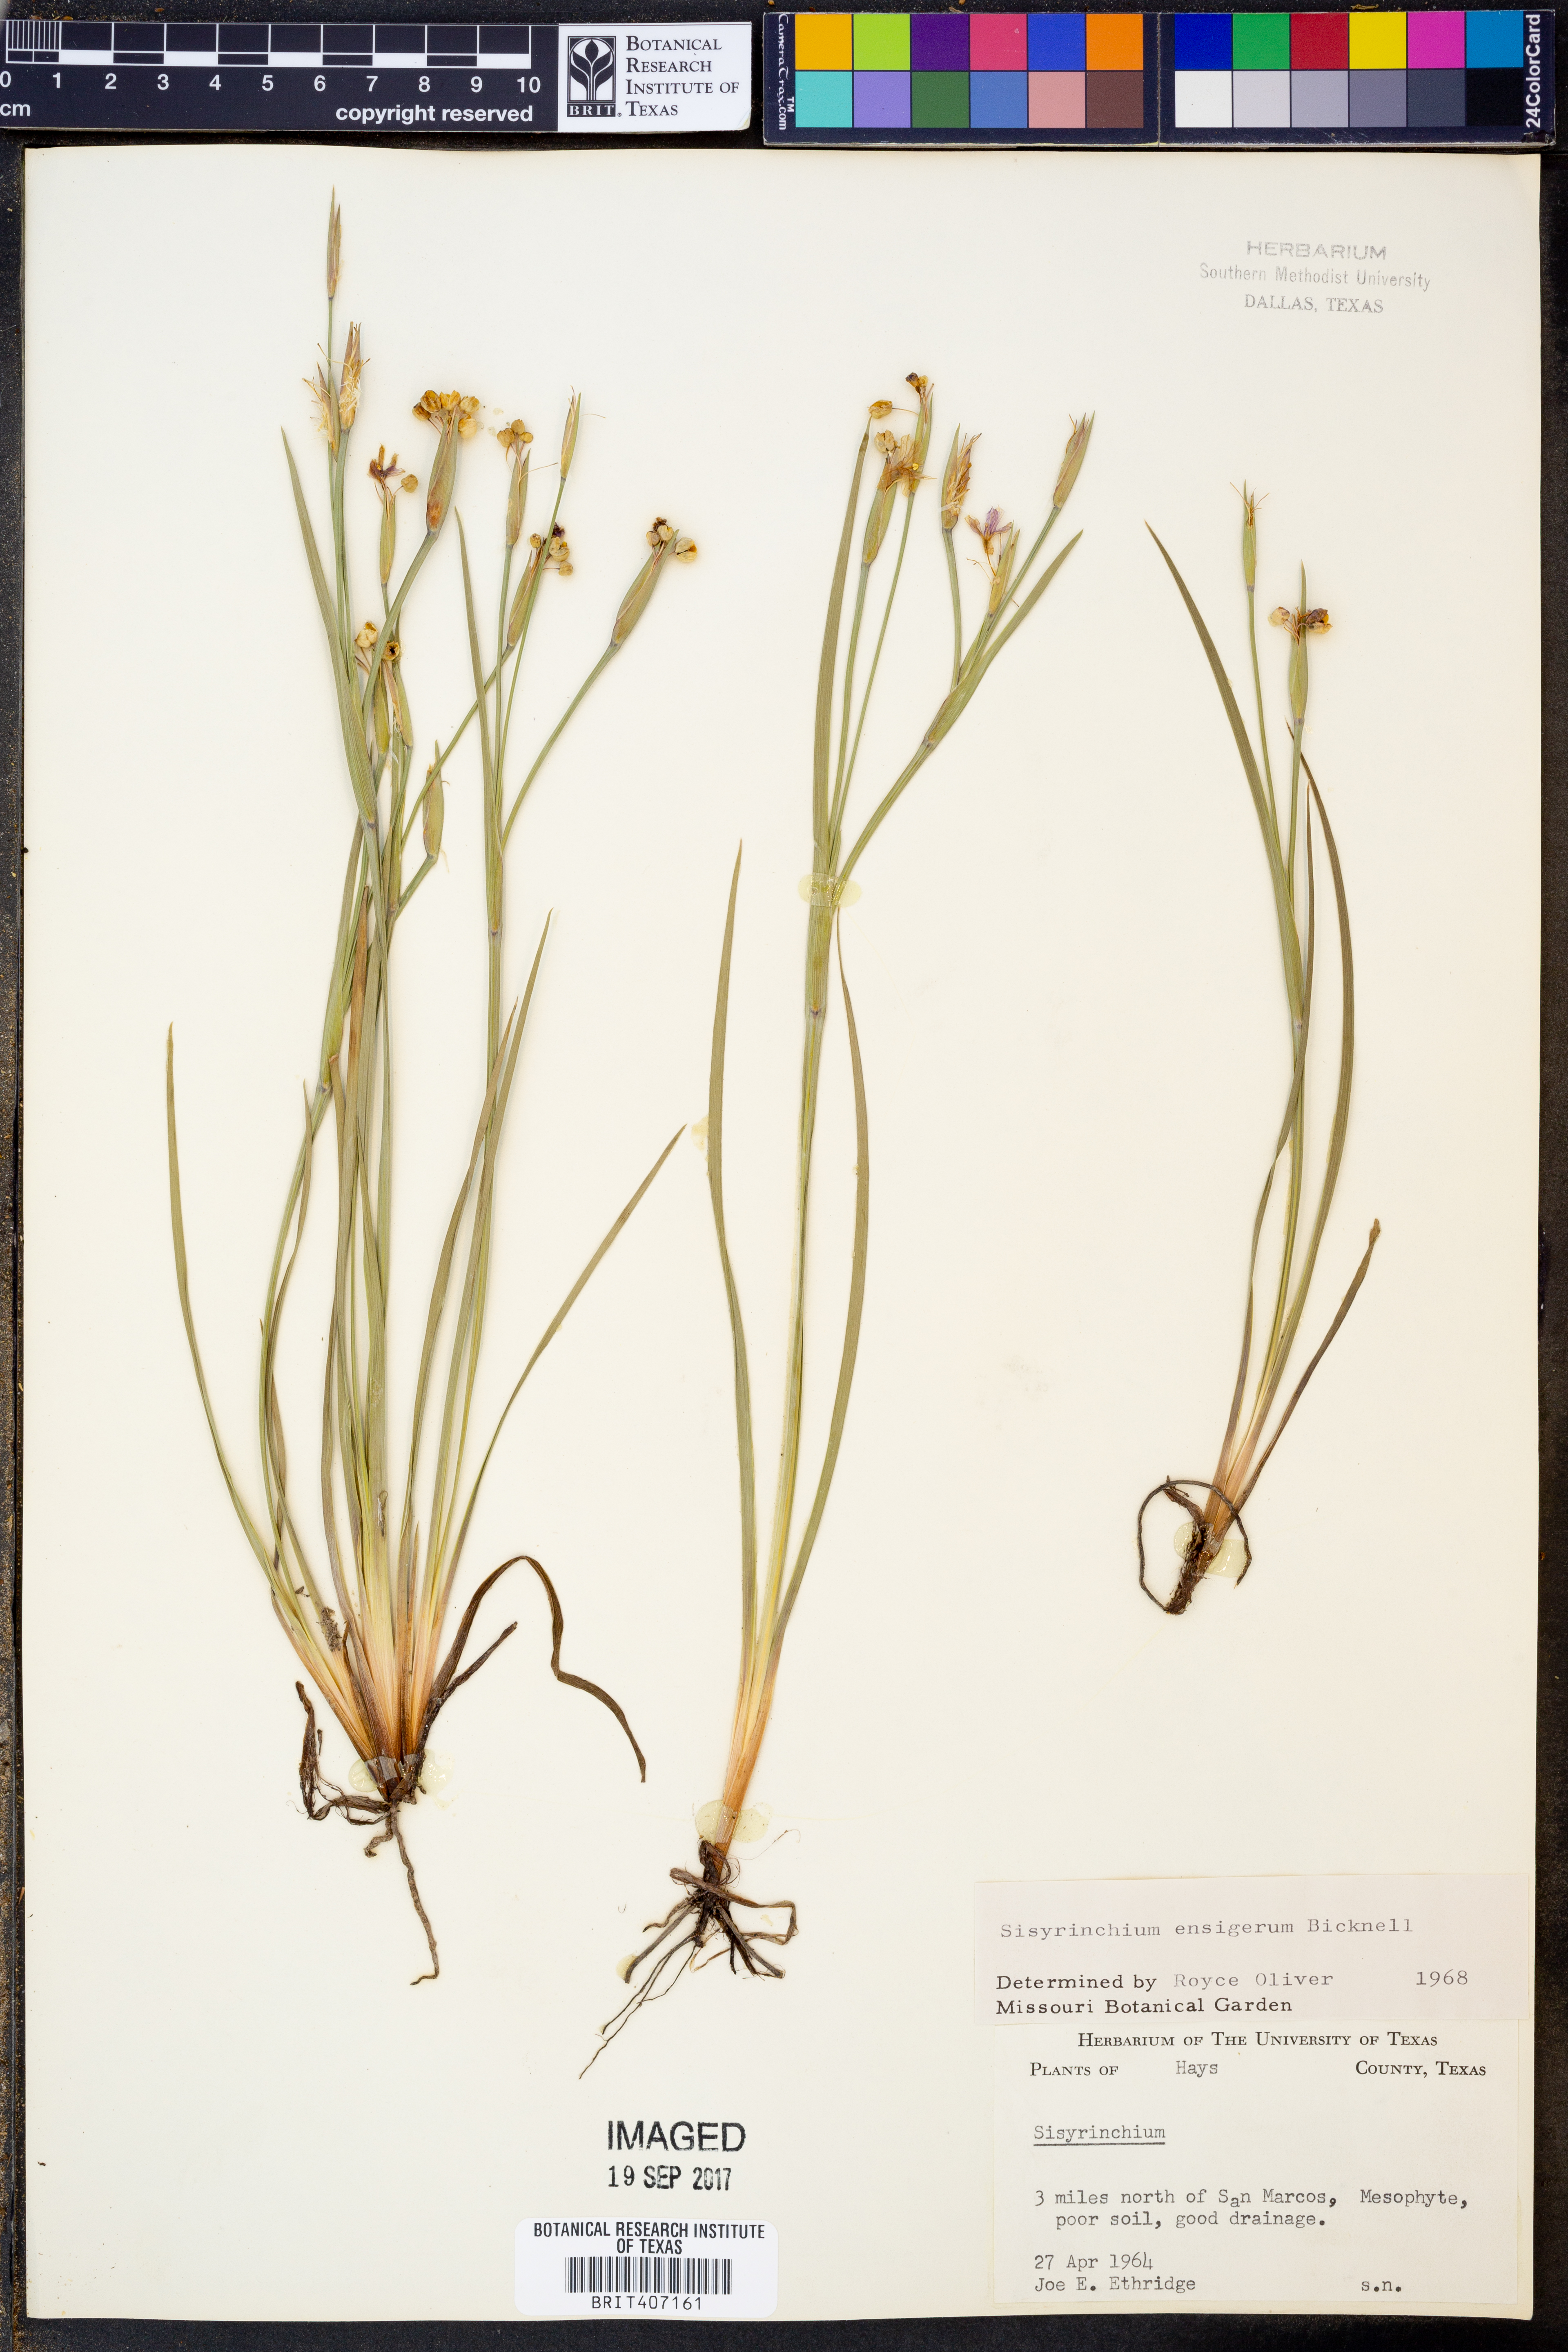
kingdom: Plantae
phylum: Tracheophyta
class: Liliopsida
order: Asparagales
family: Iridaceae
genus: Sisyrinchium
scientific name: Sisyrinchium ensigerum
